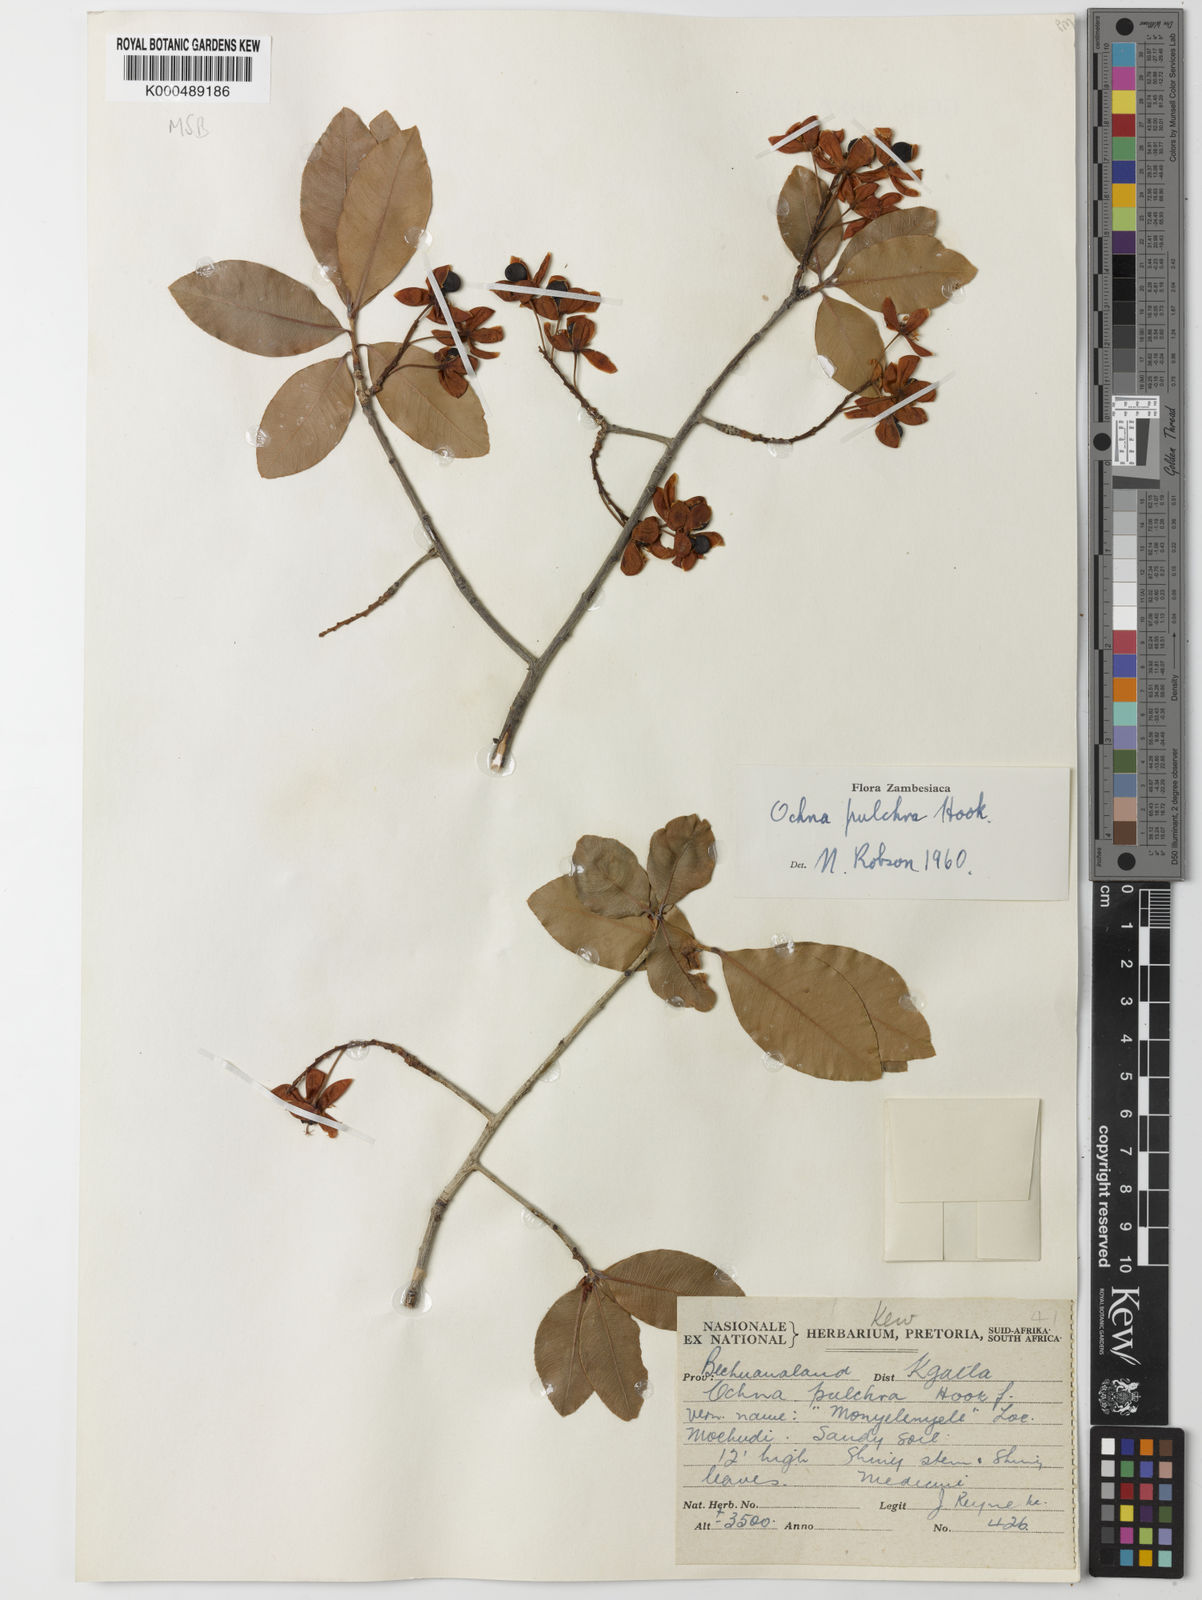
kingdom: Plantae
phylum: Tracheophyta
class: Magnoliopsida
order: Malpighiales
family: Ochnaceae
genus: Ochna
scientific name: Ochna pulchra
